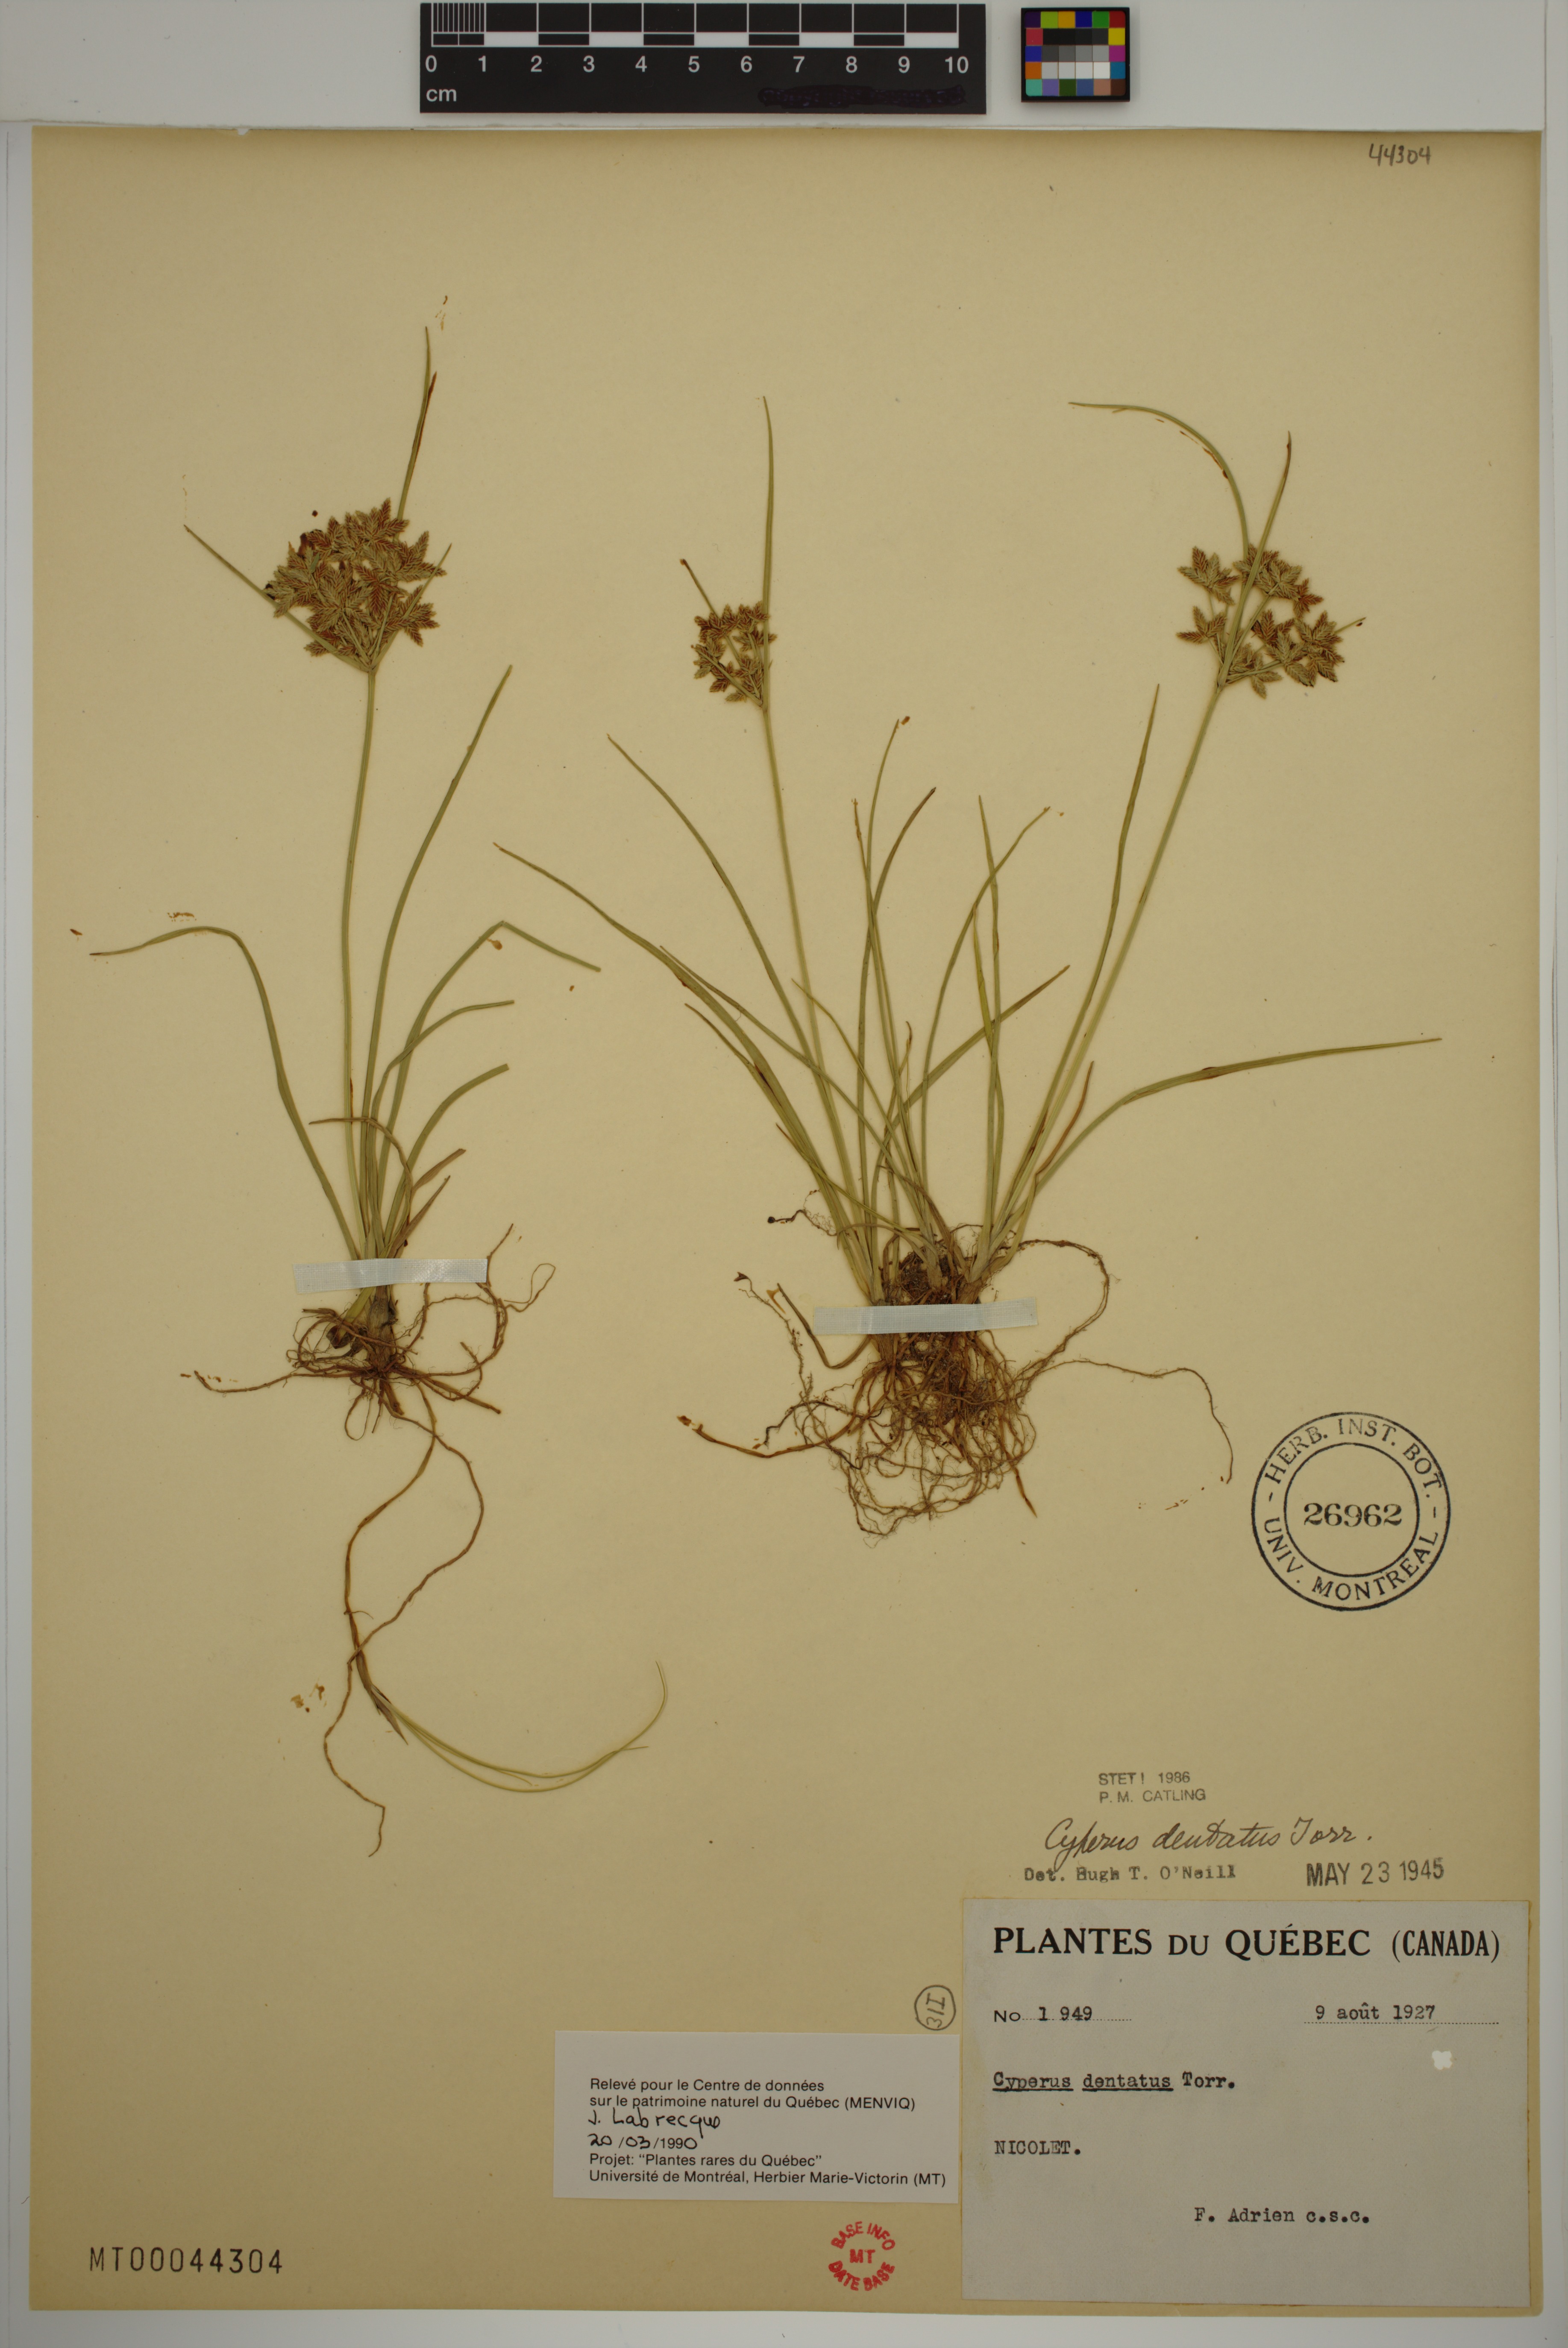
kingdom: Plantae
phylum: Tracheophyta
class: Liliopsida
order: Poales
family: Cyperaceae
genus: Cyperus
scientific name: Cyperus dentatus
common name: Dentate umbrella sedge
